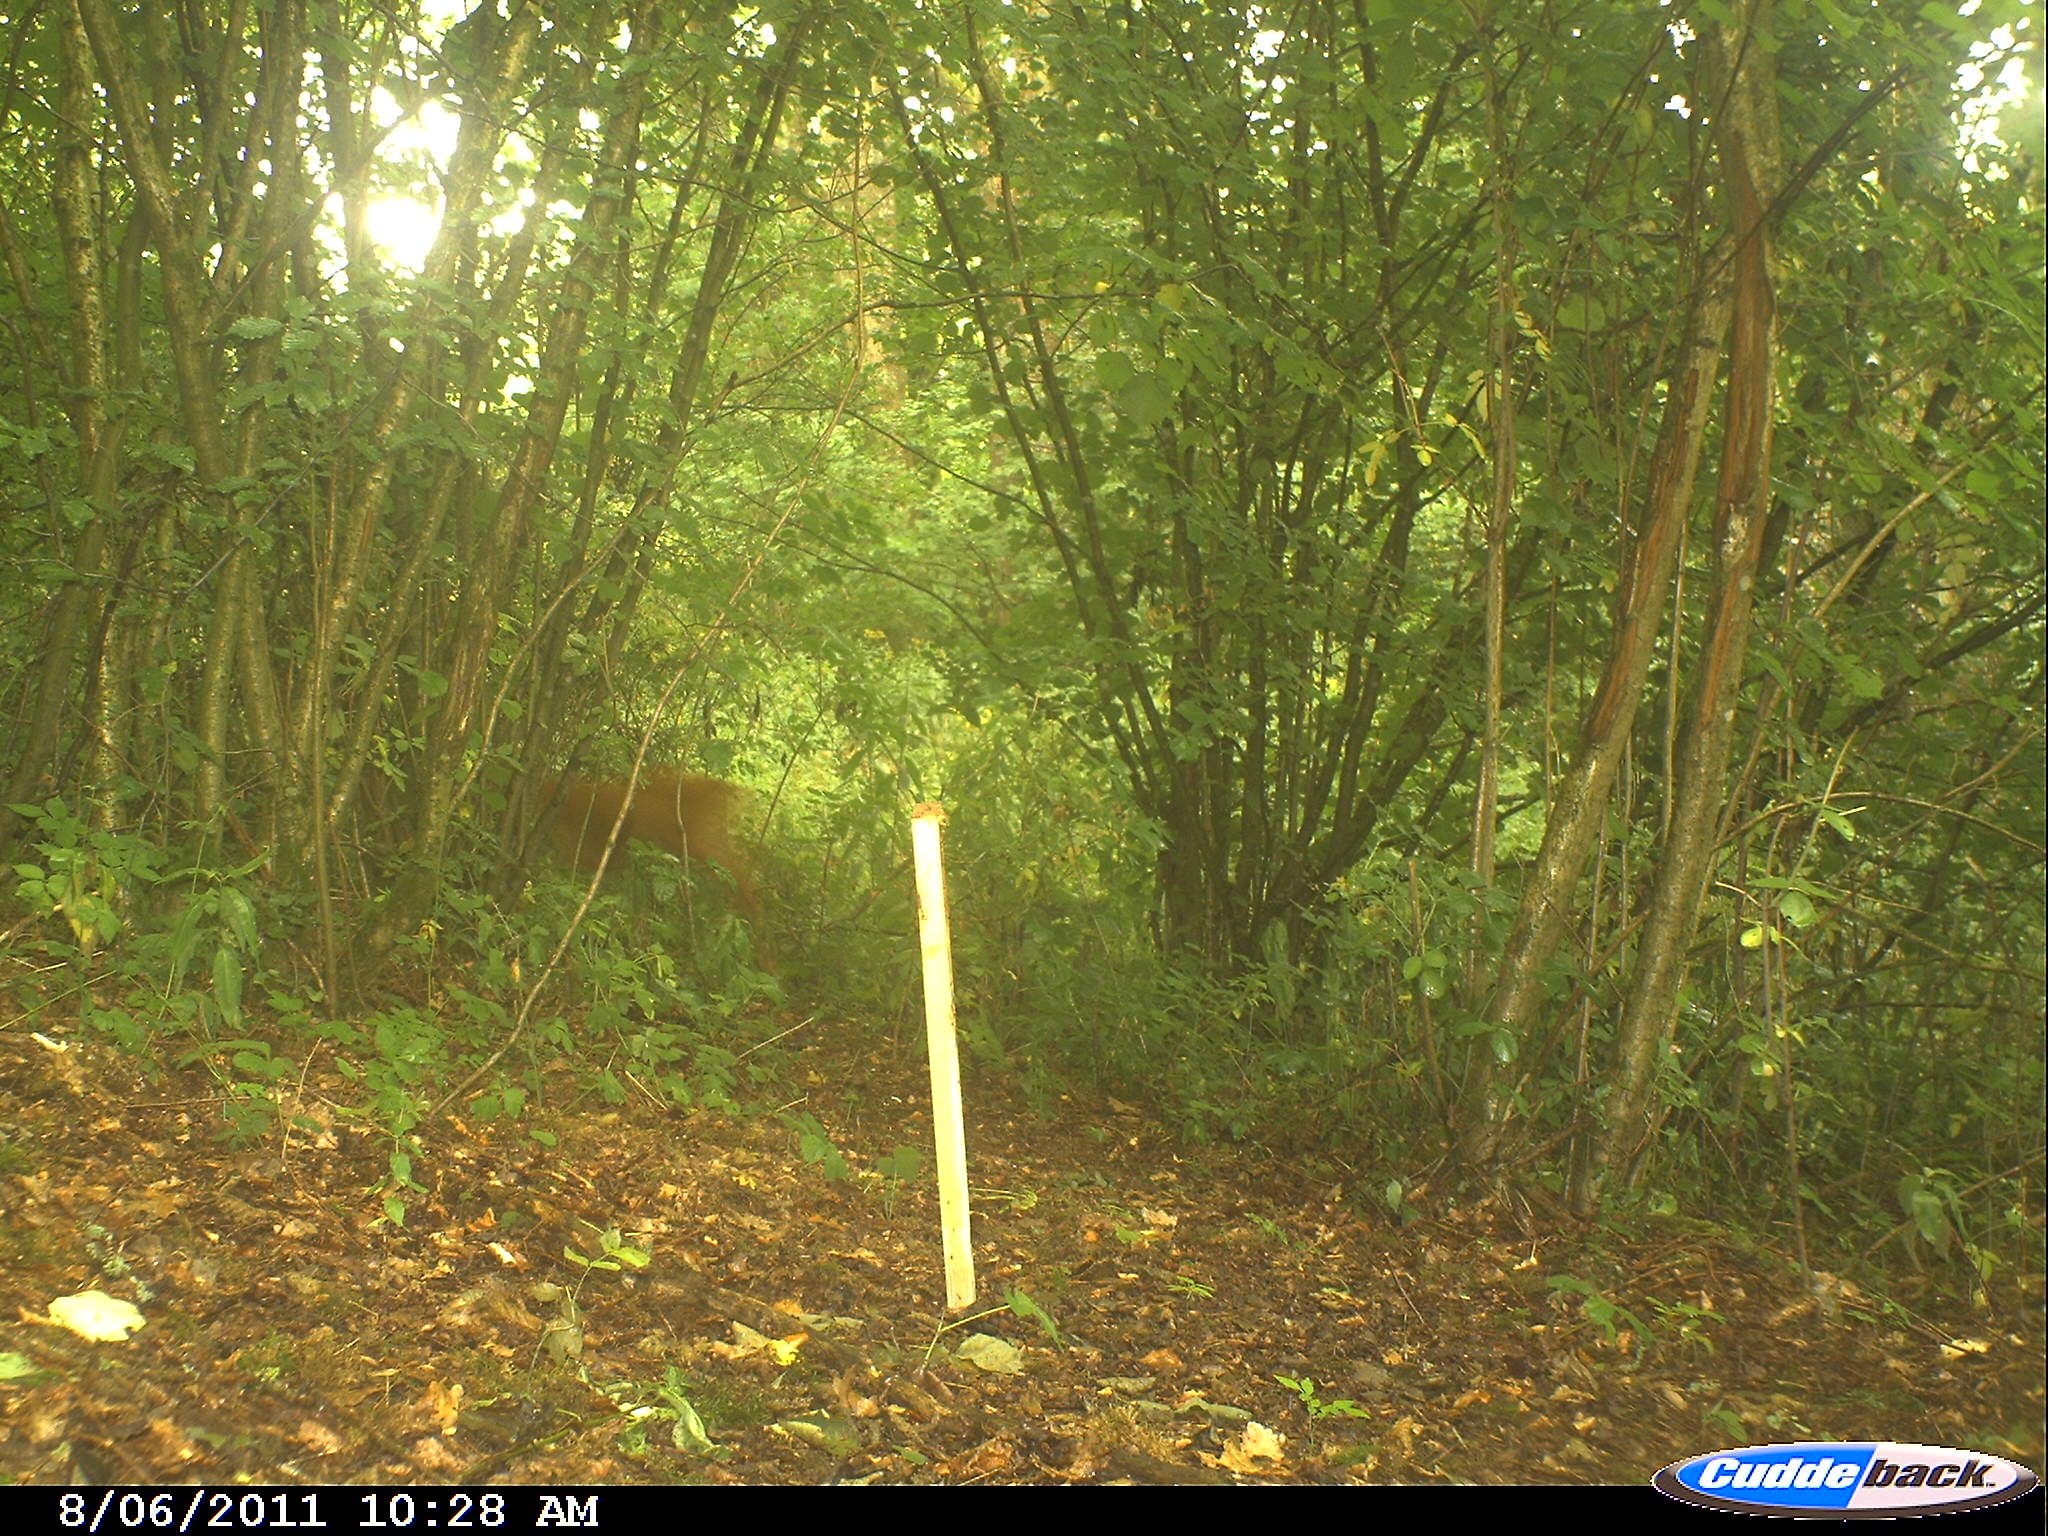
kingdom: Animalia
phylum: Chordata
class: Mammalia
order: Artiodactyla
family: Cervidae
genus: Capreolus
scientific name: Capreolus capreolus
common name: Western roe deer
